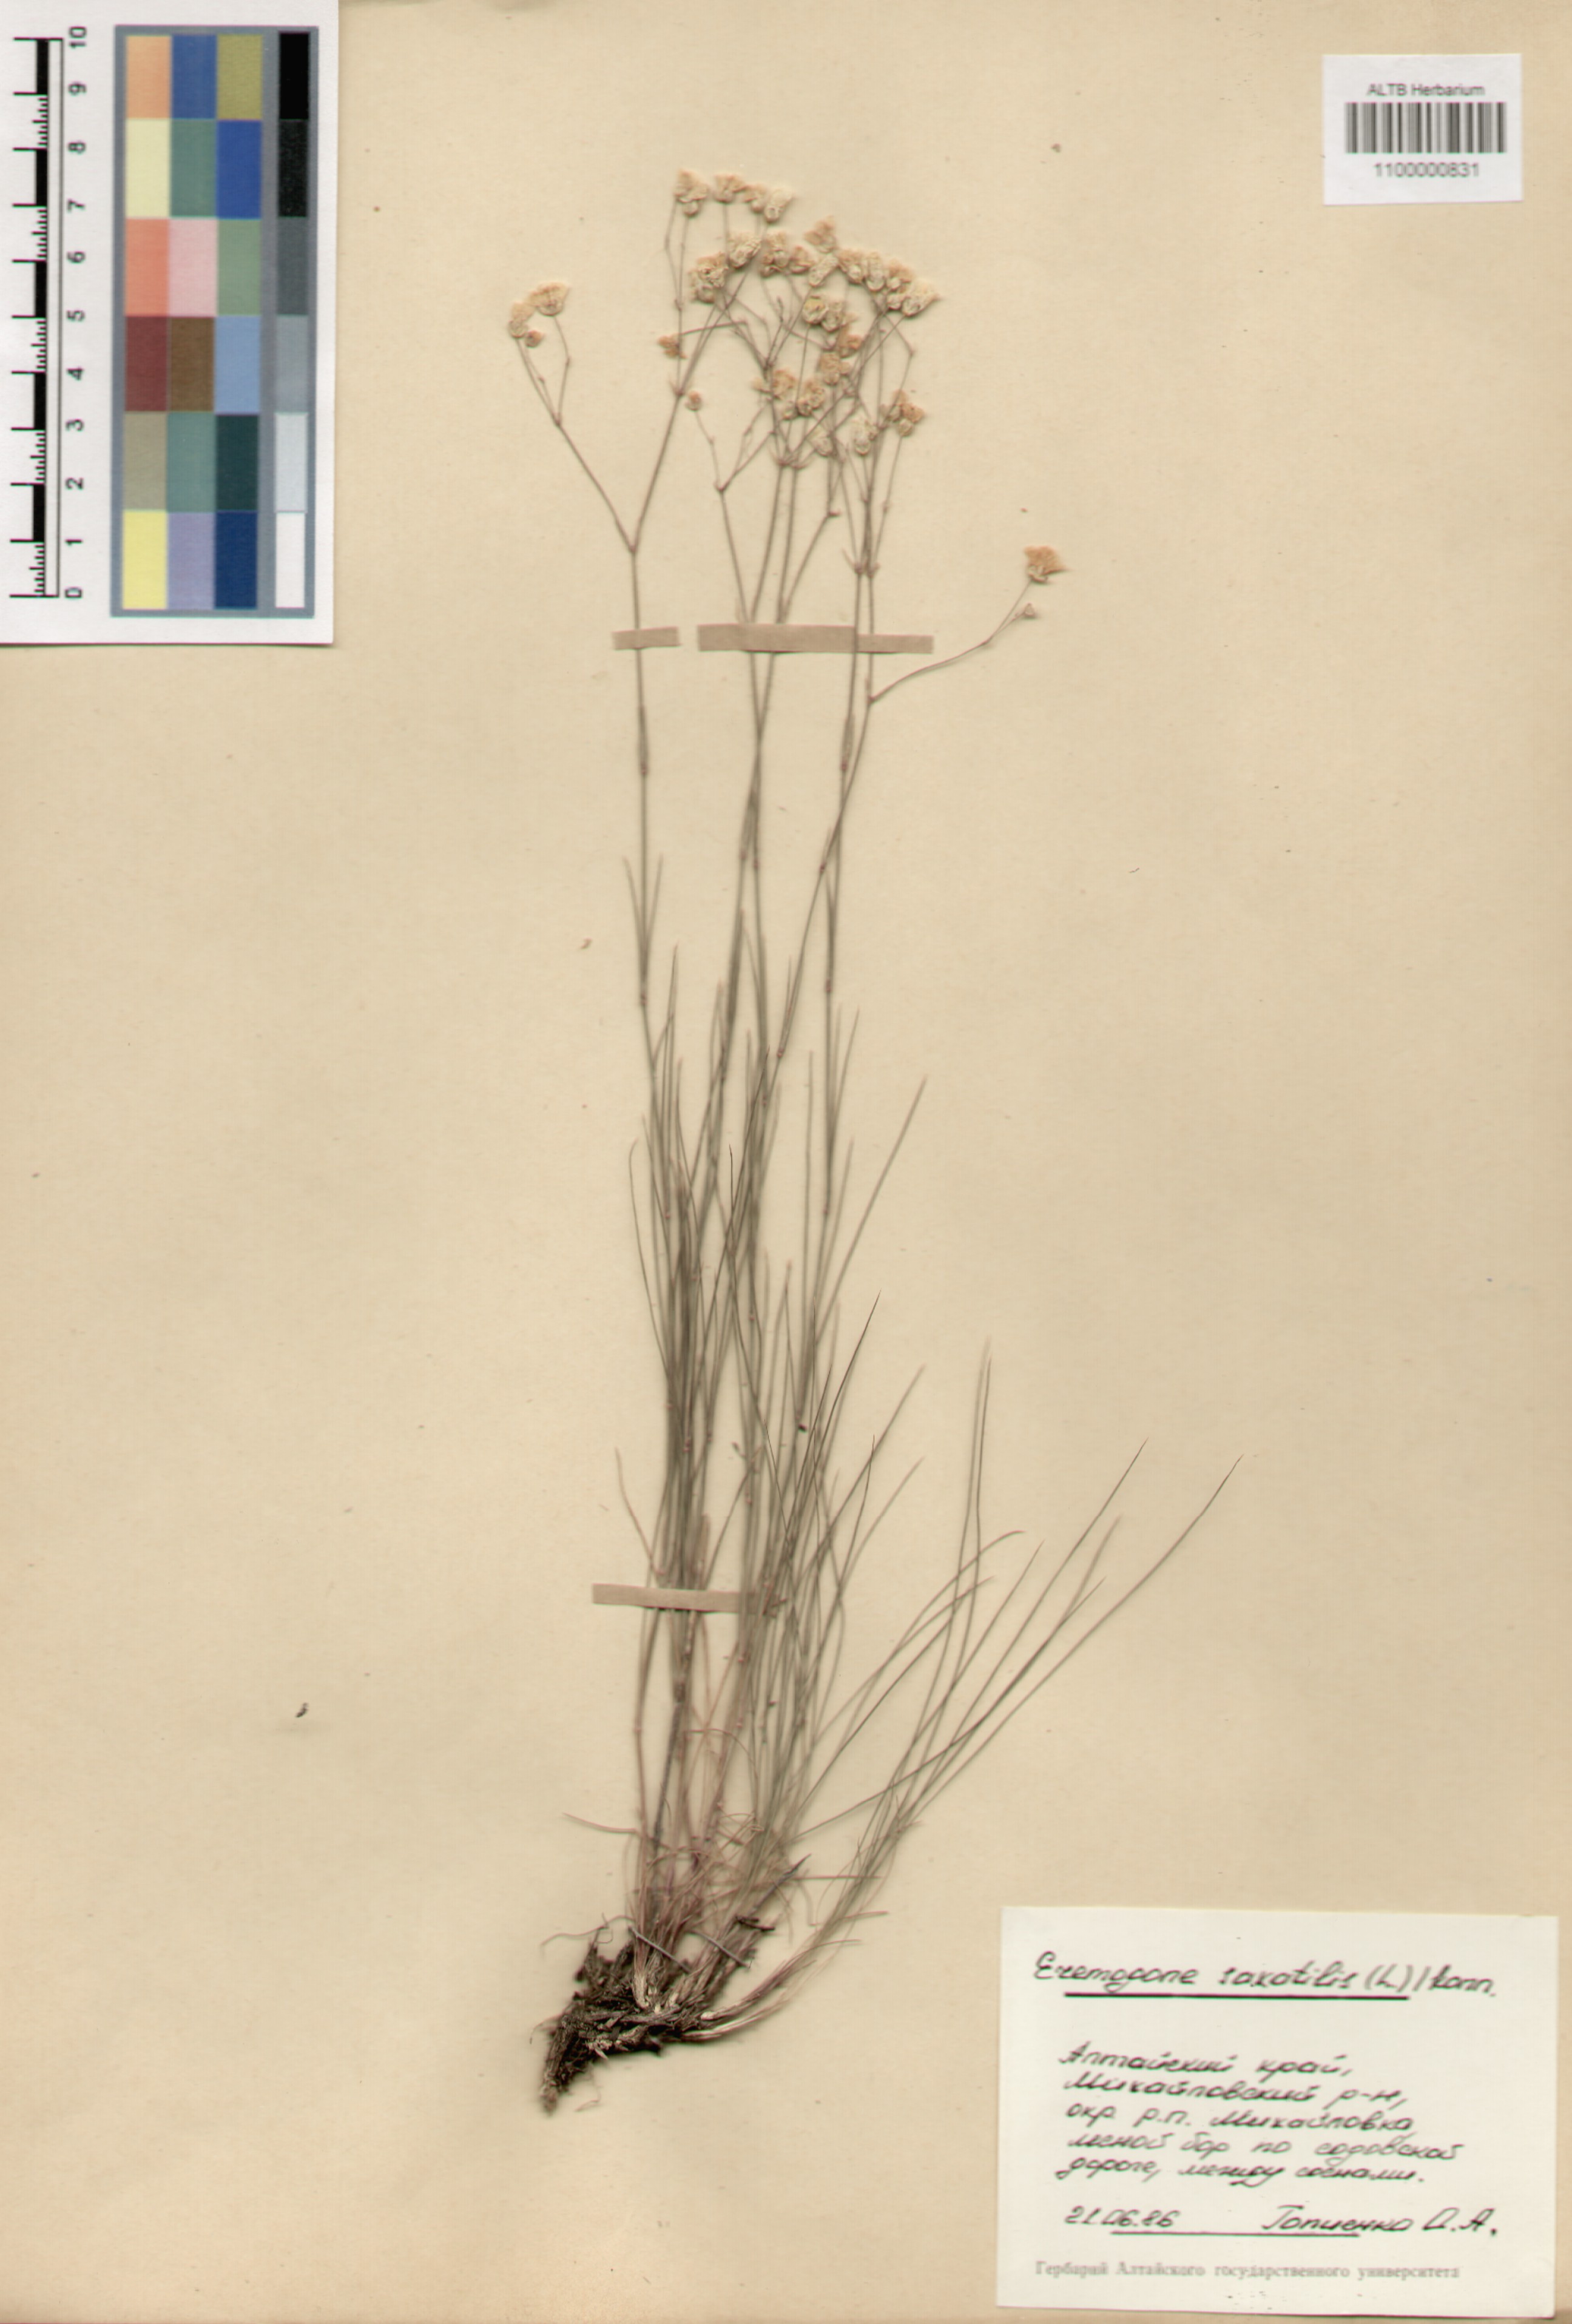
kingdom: Plantae
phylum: Tracheophyta
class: Magnoliopsida
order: Caryophyllales
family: Caryophyllaceae
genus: Eremogone
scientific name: Eremogone saxatilis
